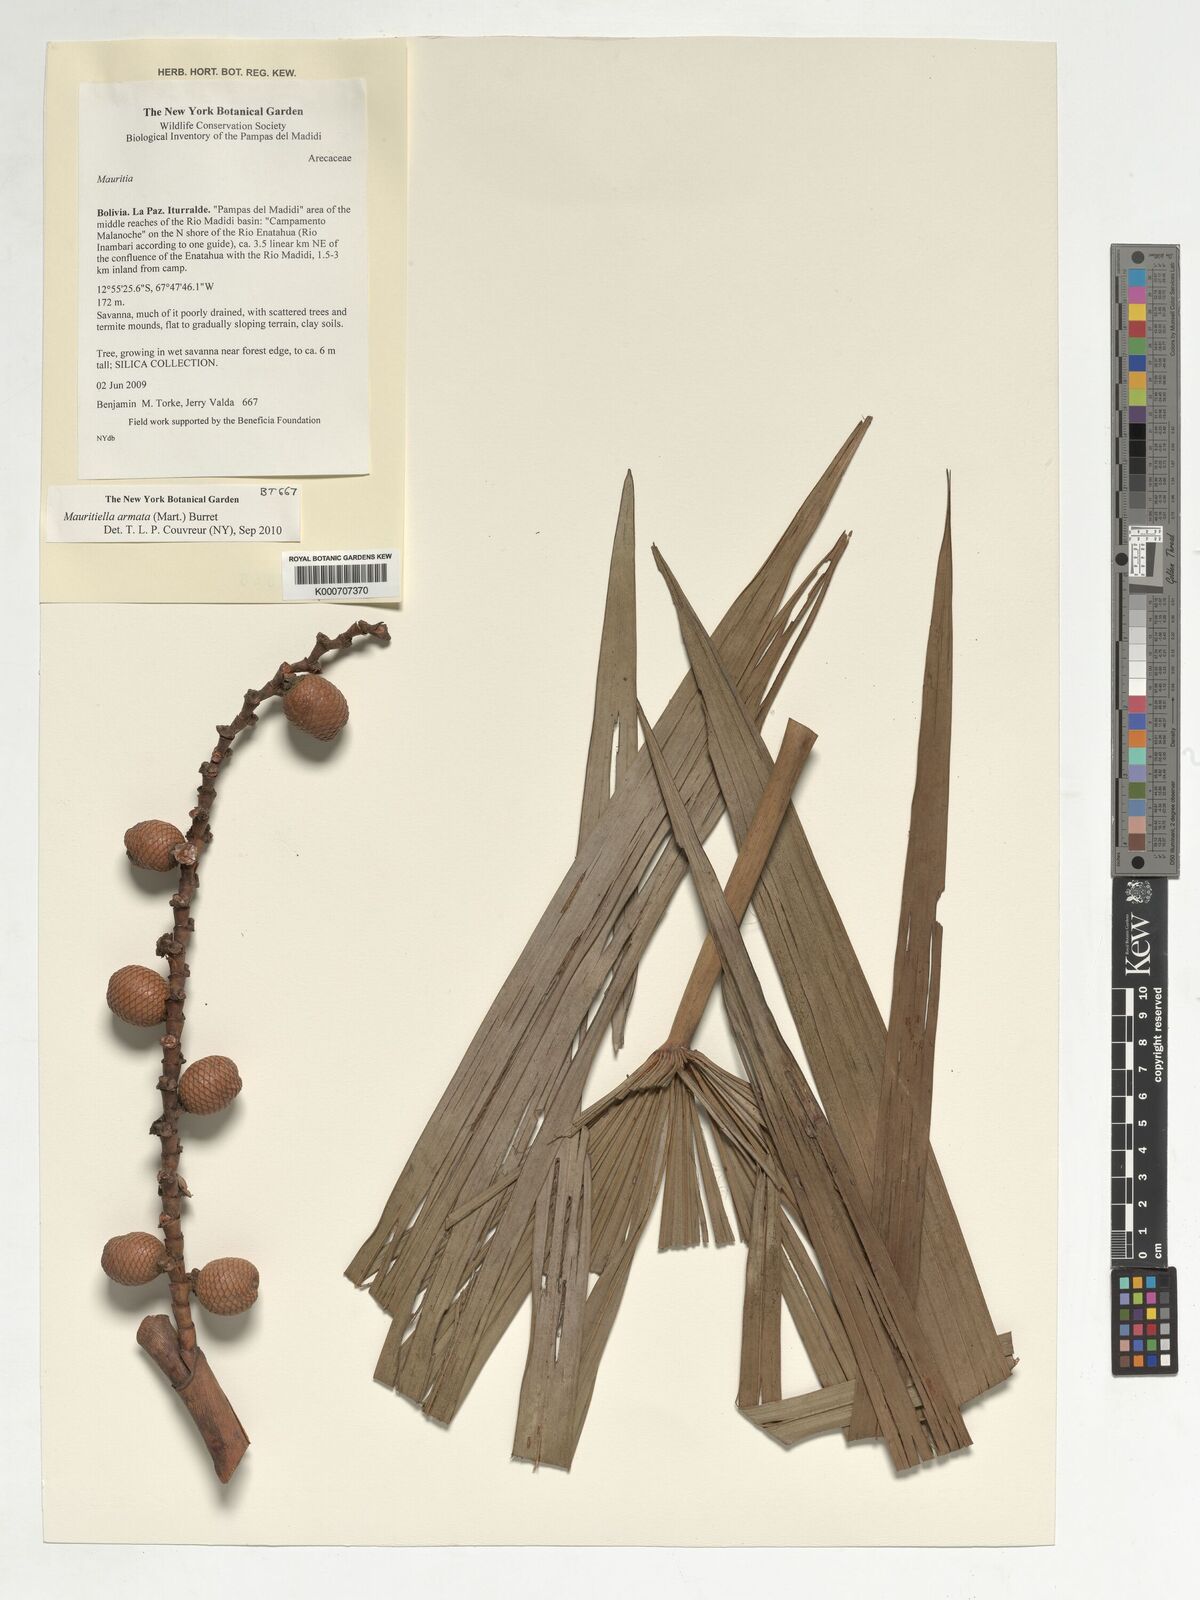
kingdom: Plantae
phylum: Tracheophyta
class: Liliopsida
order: Arecales
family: Arecaceae
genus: Mauritiella
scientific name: Mauritiella armata
